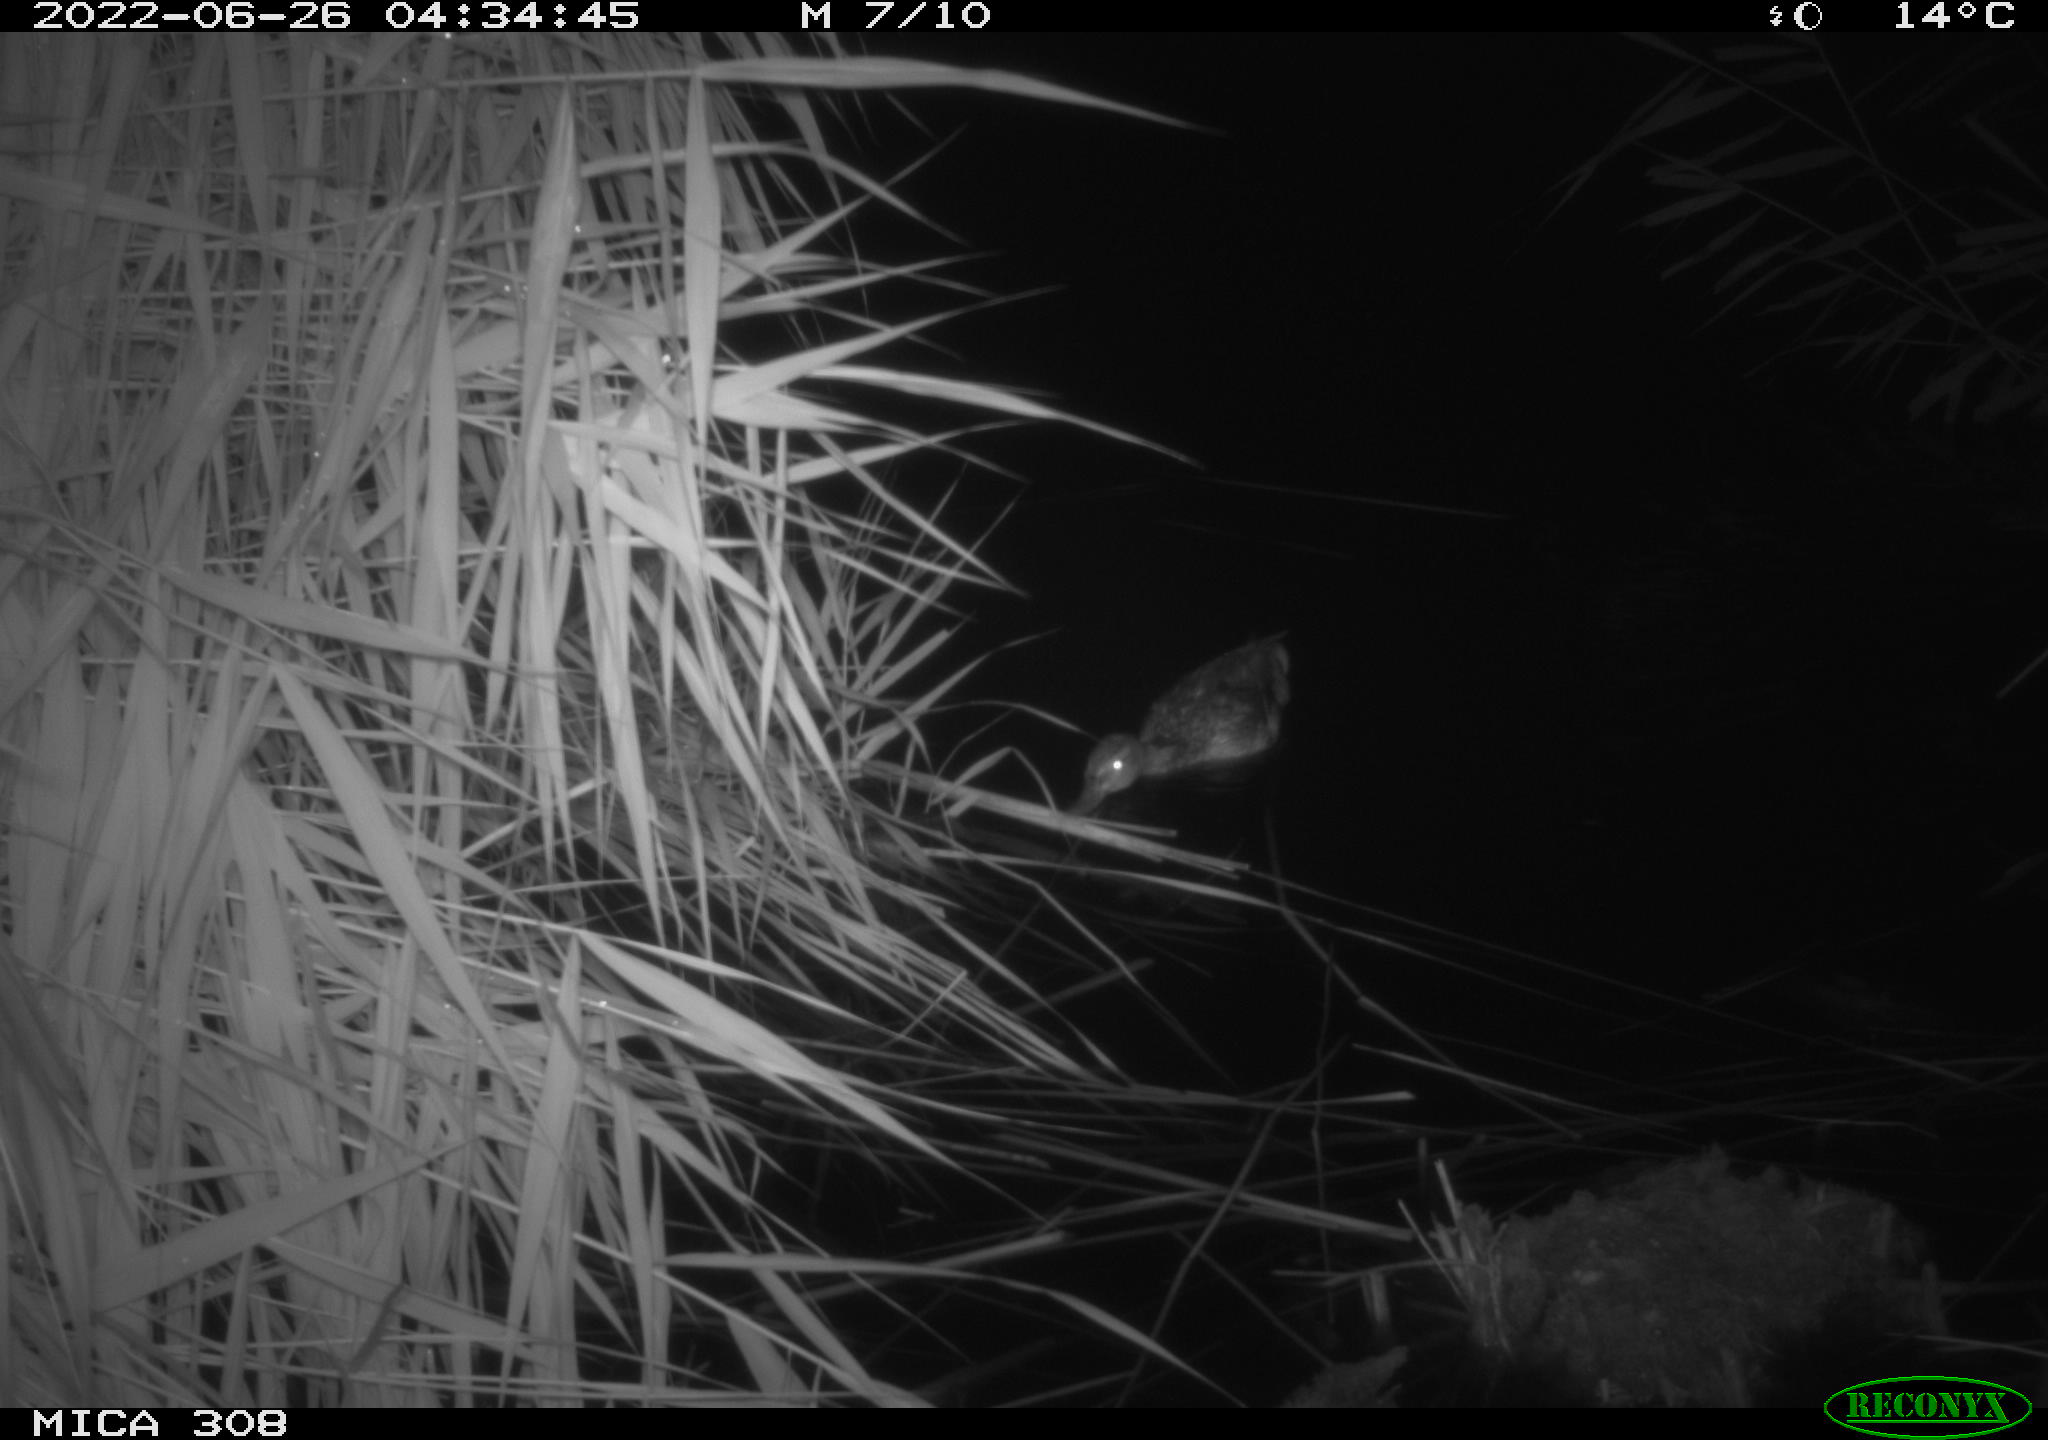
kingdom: Animalia
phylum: Chordata
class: Aves
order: Anseriformes
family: Anatidae
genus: Anas
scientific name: Anas platyrhynchos
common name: Mallard
